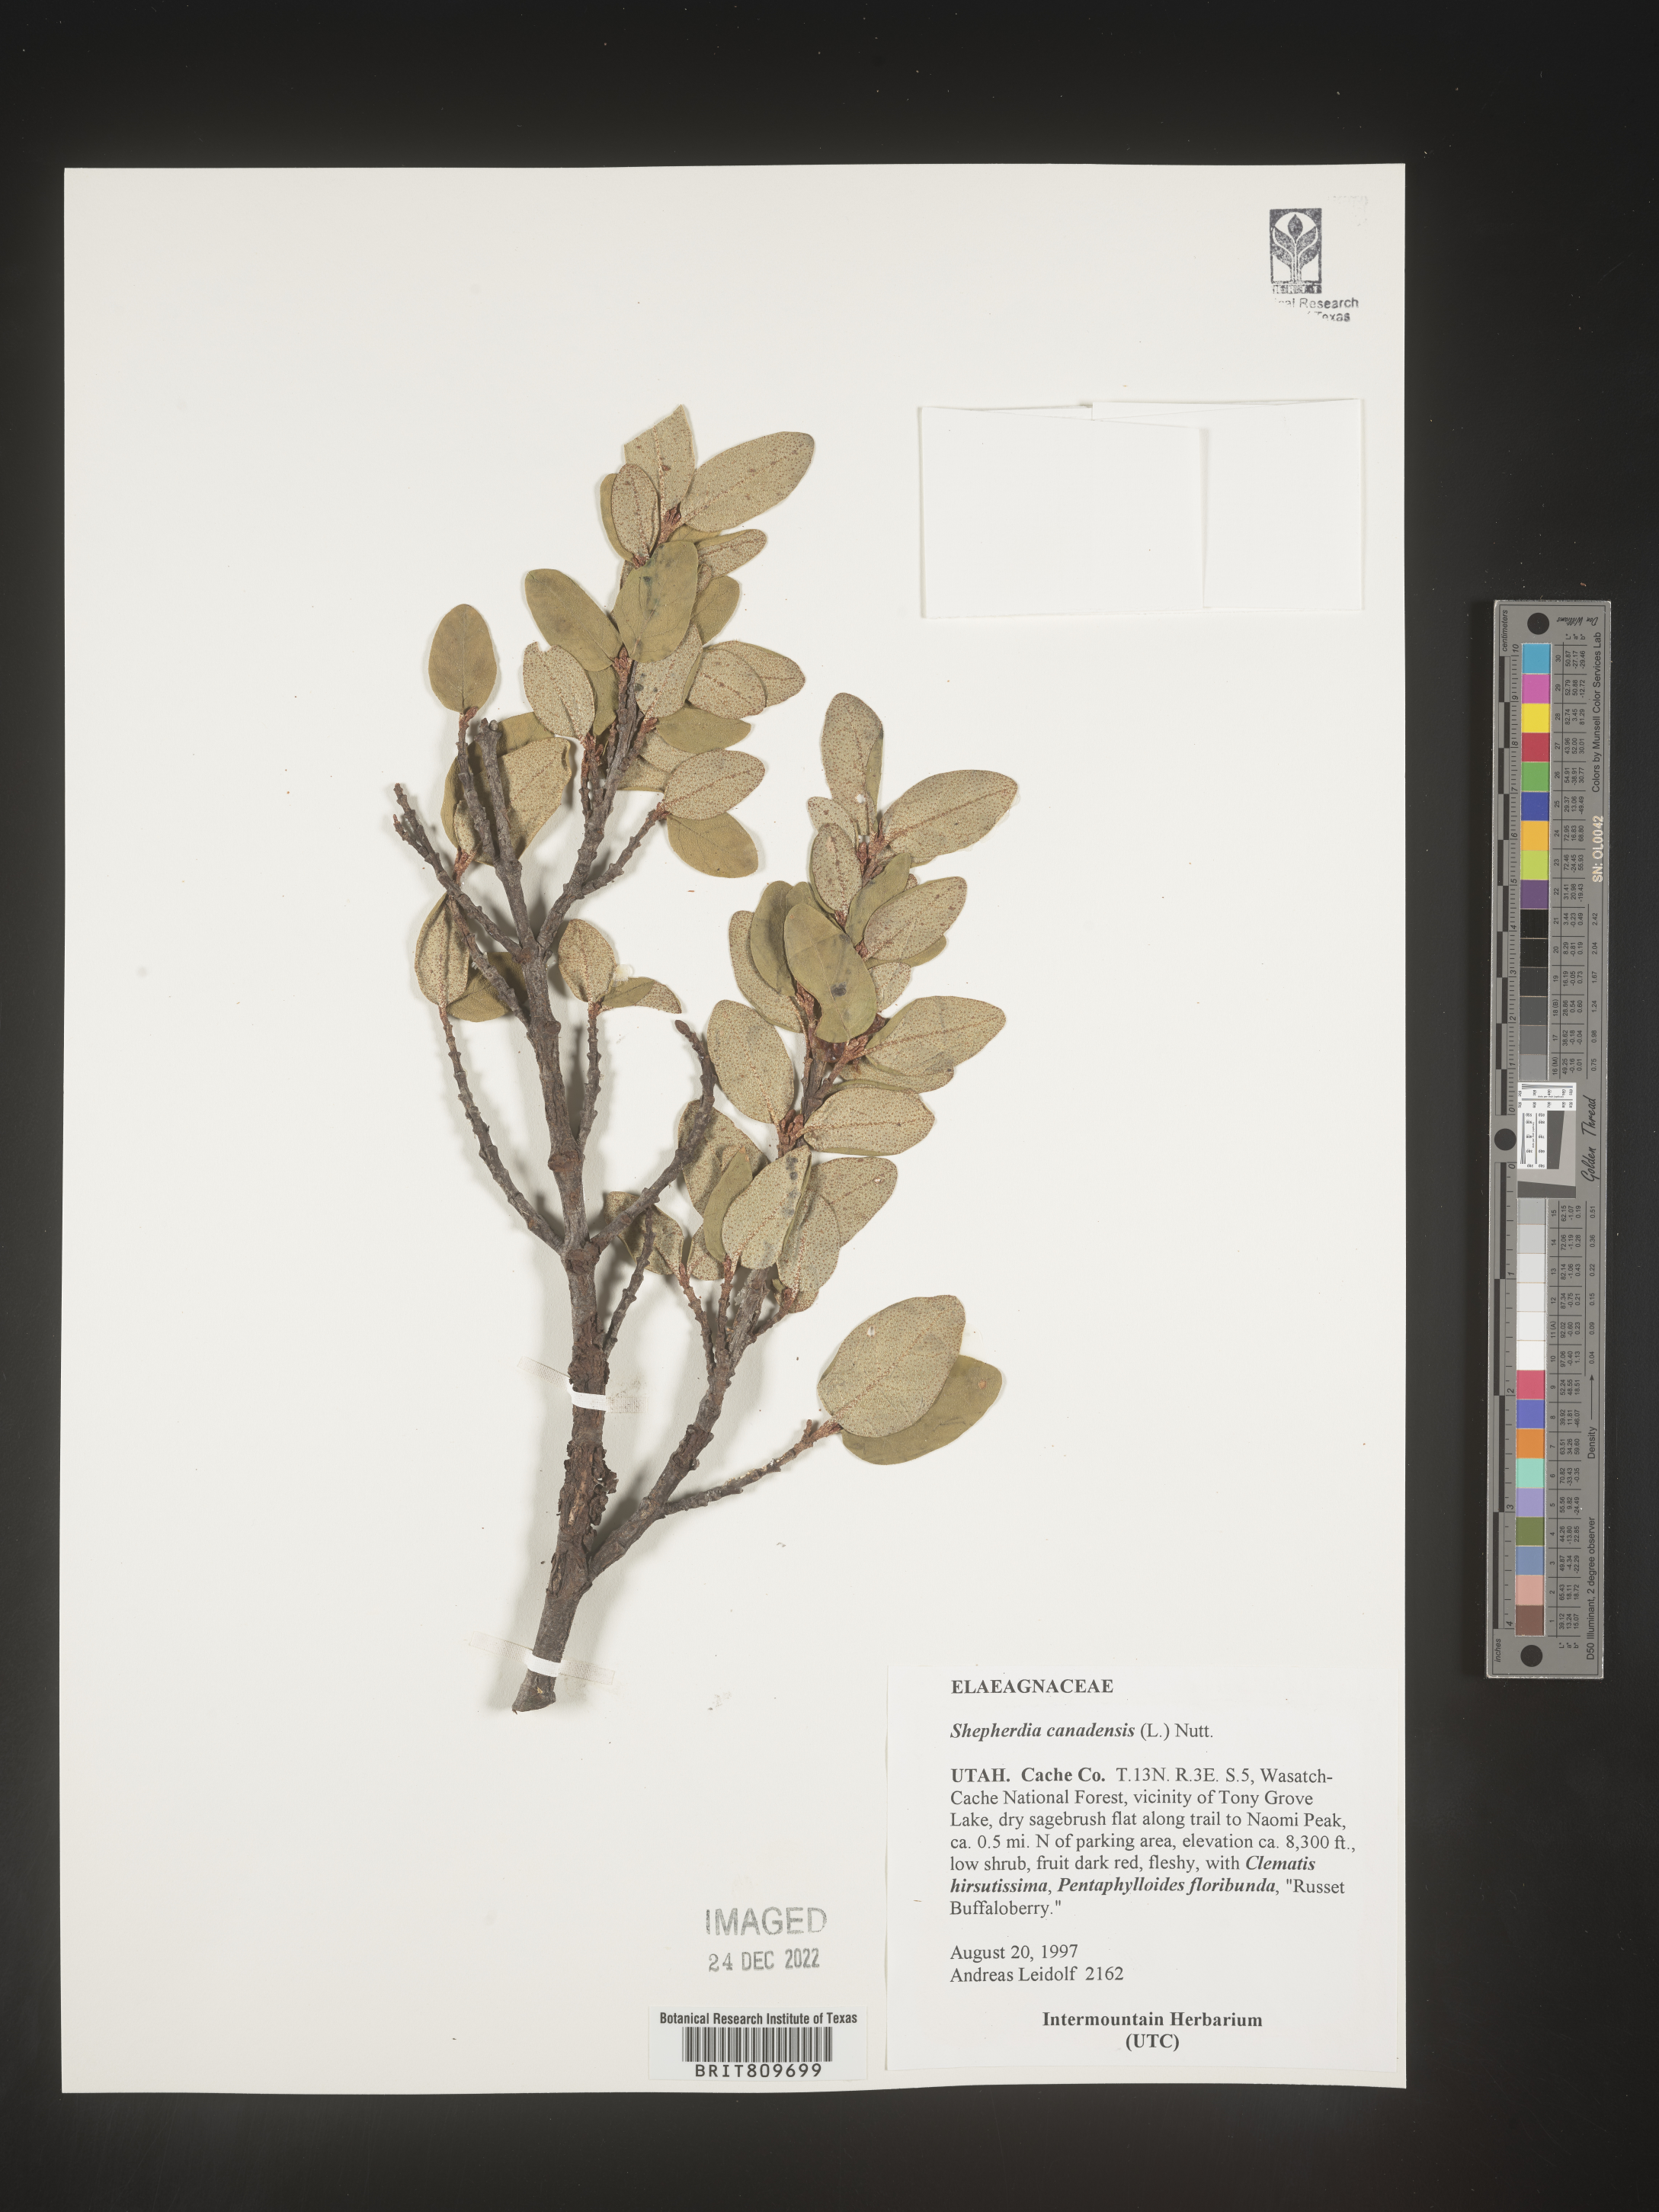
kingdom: Plantae
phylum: Tracheophyta
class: Magnoliopsida
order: Rosales
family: Elaeagnaceae
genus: Shepherdia
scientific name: Shepherdia canadensis
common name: Soapberry
